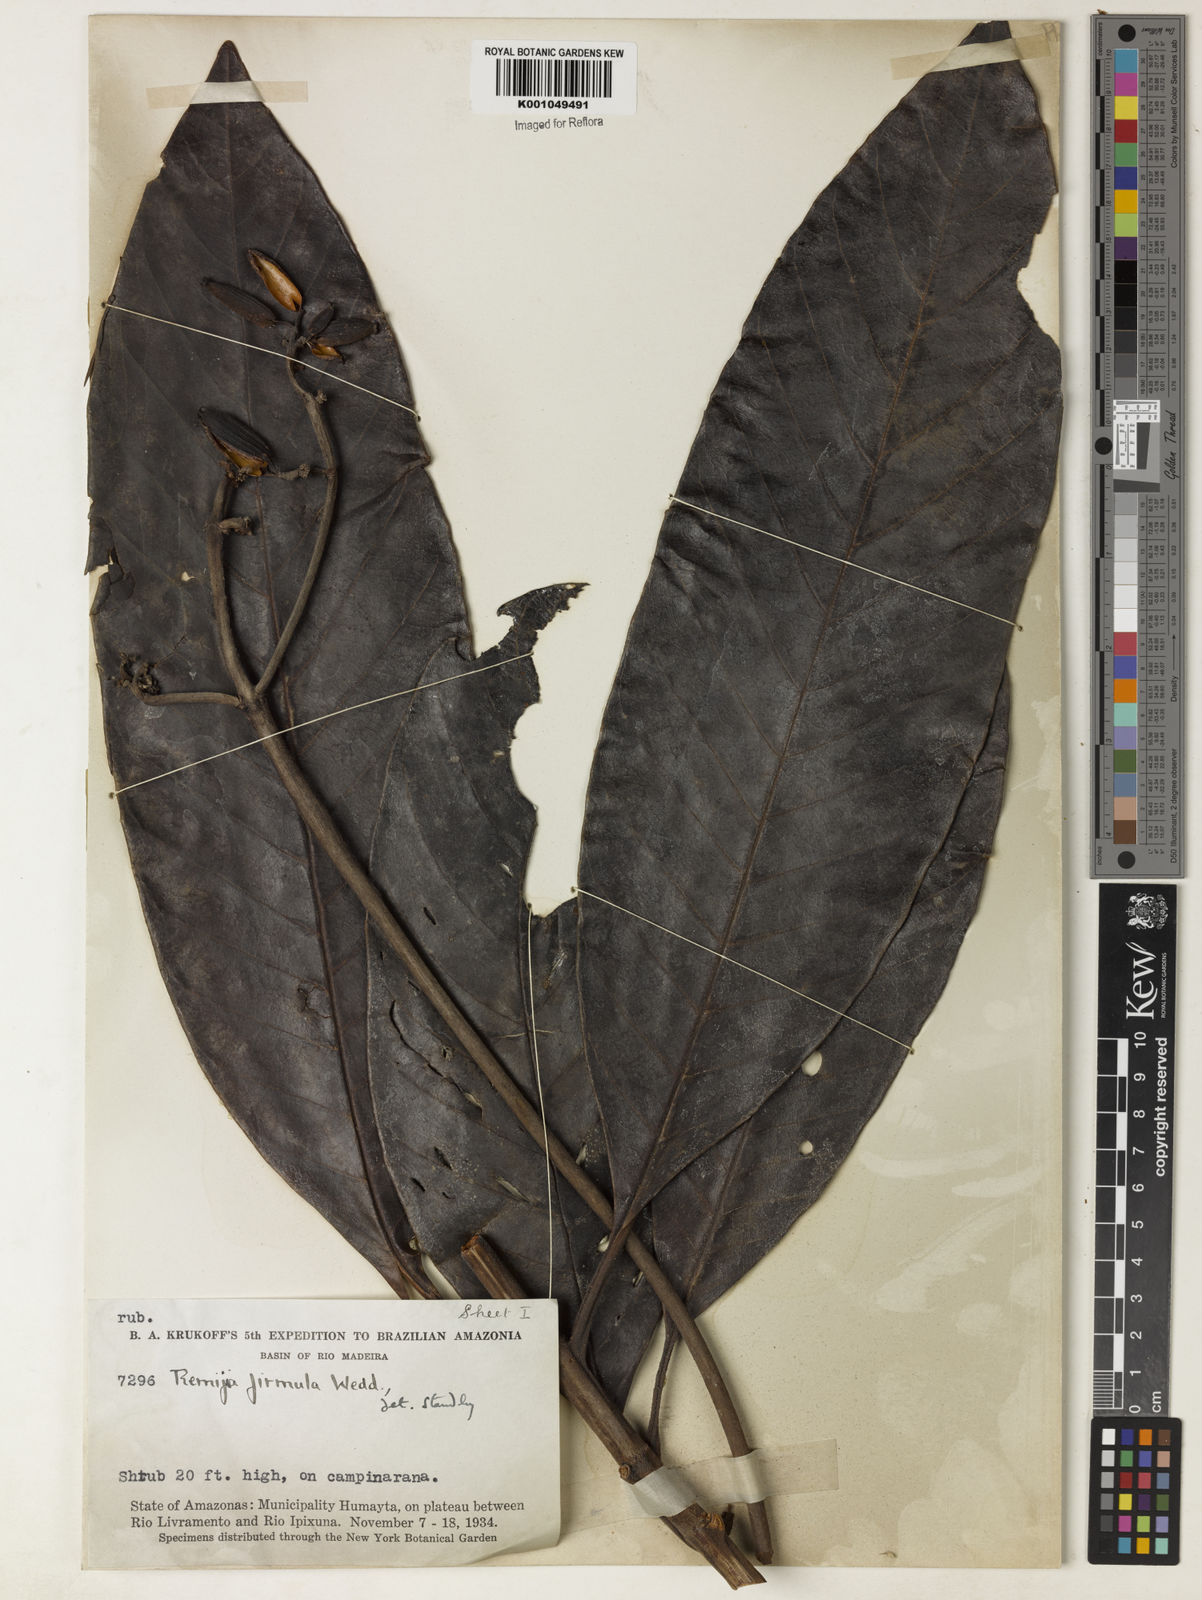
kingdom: Plantae
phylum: Tracheophyta
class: Magnoliopsida
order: Gentianales
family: Rubiaceae
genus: Remijia
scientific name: Remijia firmula
